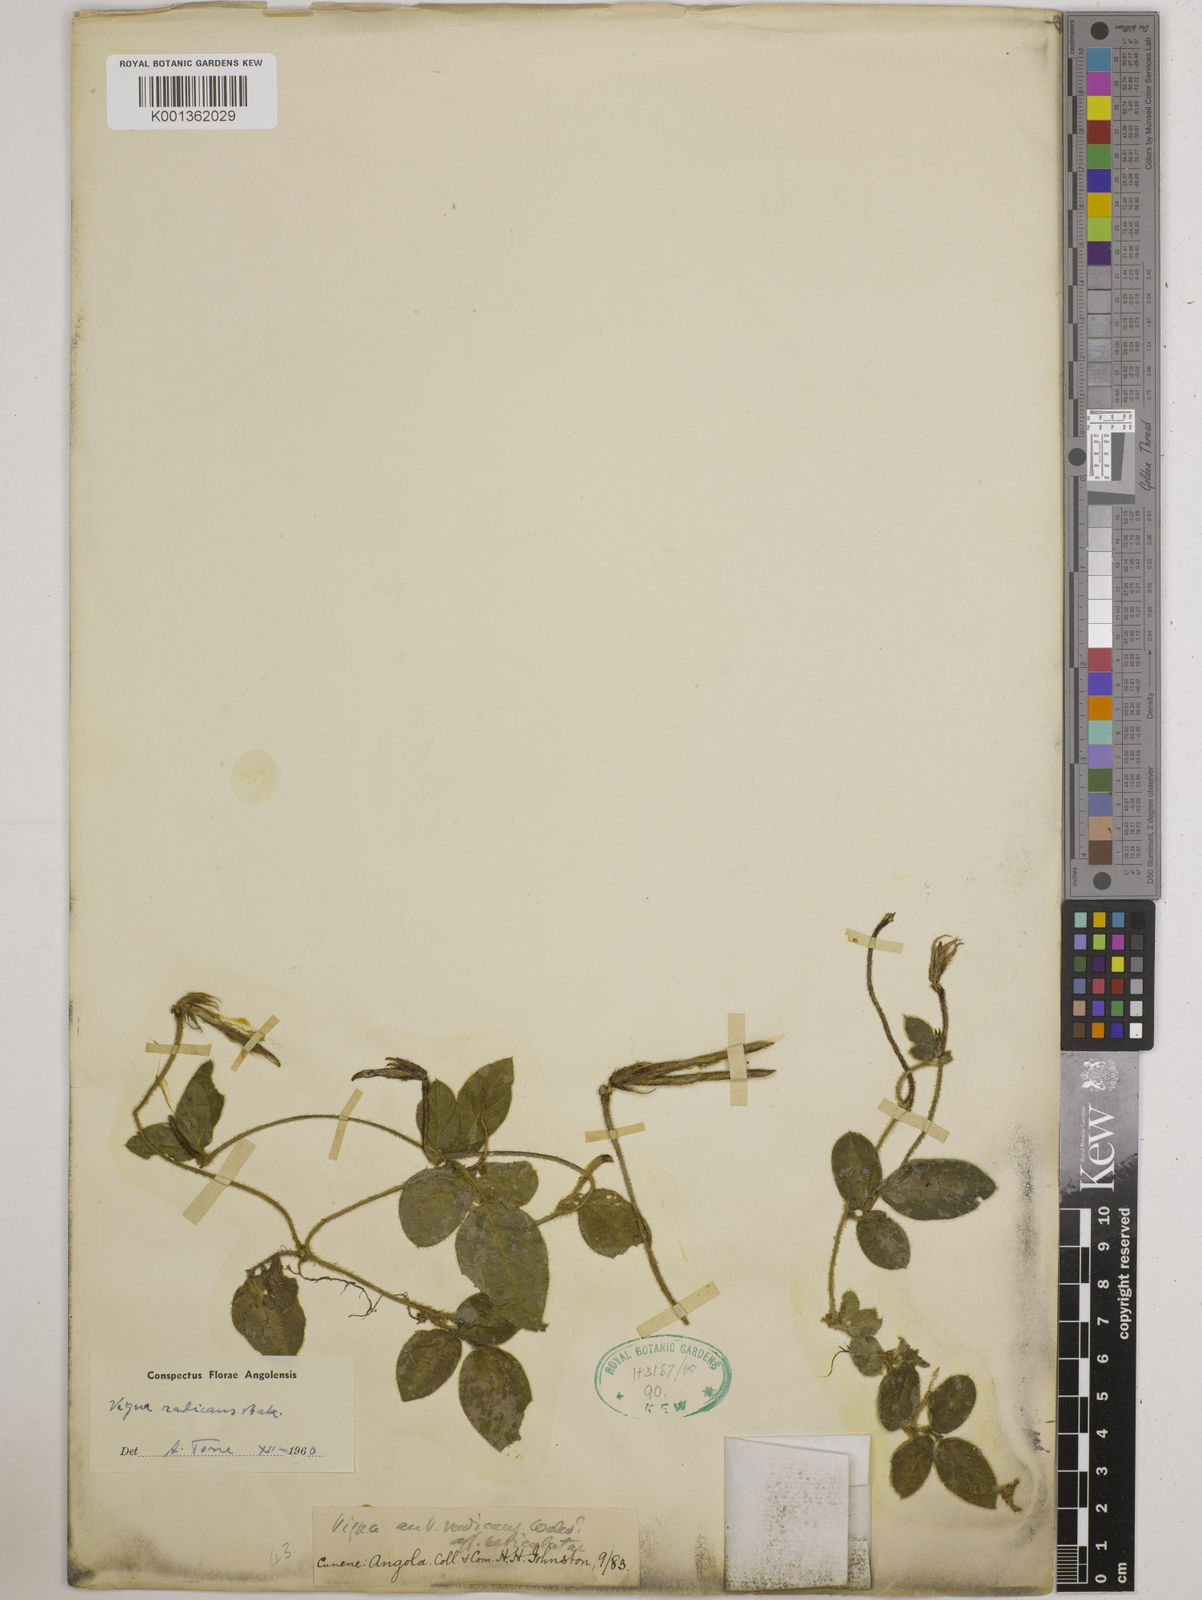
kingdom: Plantae
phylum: Tracheophyta
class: Magnoliopsida
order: Fabales
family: Fabaceae
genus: Vigna
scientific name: Vigna radicans
